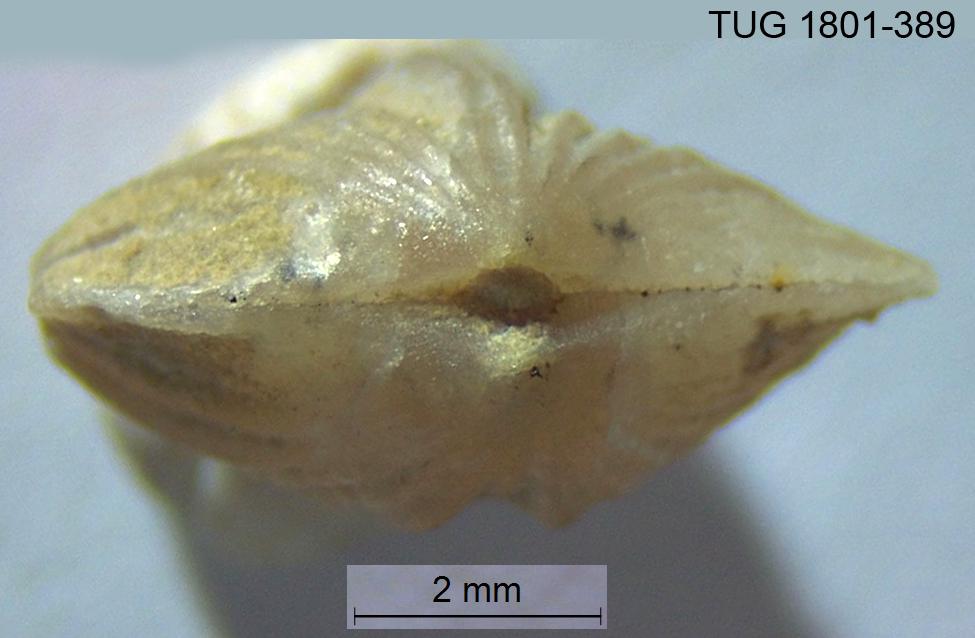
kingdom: Animalia
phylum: Brachiopoda
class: Rhynchonellata
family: Plectorthidae
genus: Platystrophia
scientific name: Platystrophia crassoplicata
